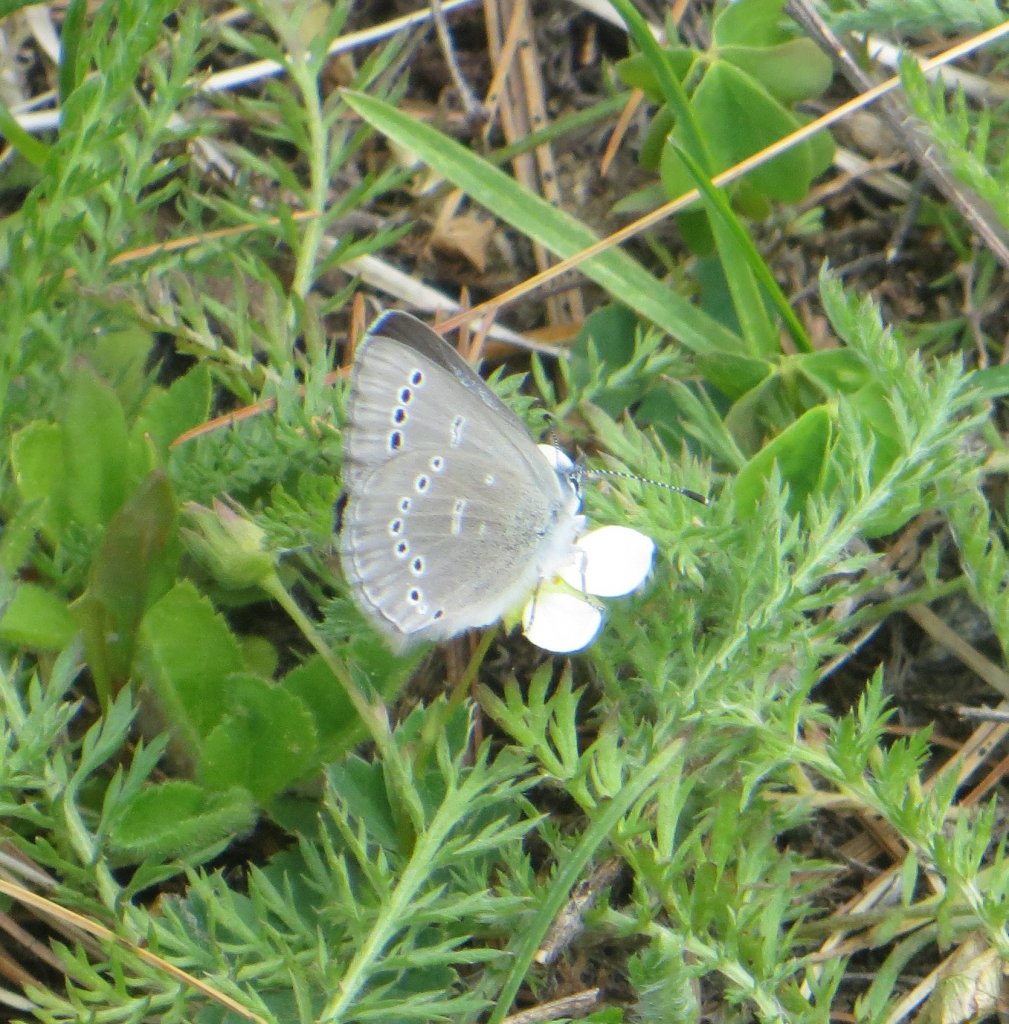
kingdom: Animalia
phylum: Arthropoda
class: Insecta
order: Lepidoptera
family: Lycaenidae
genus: Glaucopsyche
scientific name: Glaucopsyche lygdamus
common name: Silvery Blue
